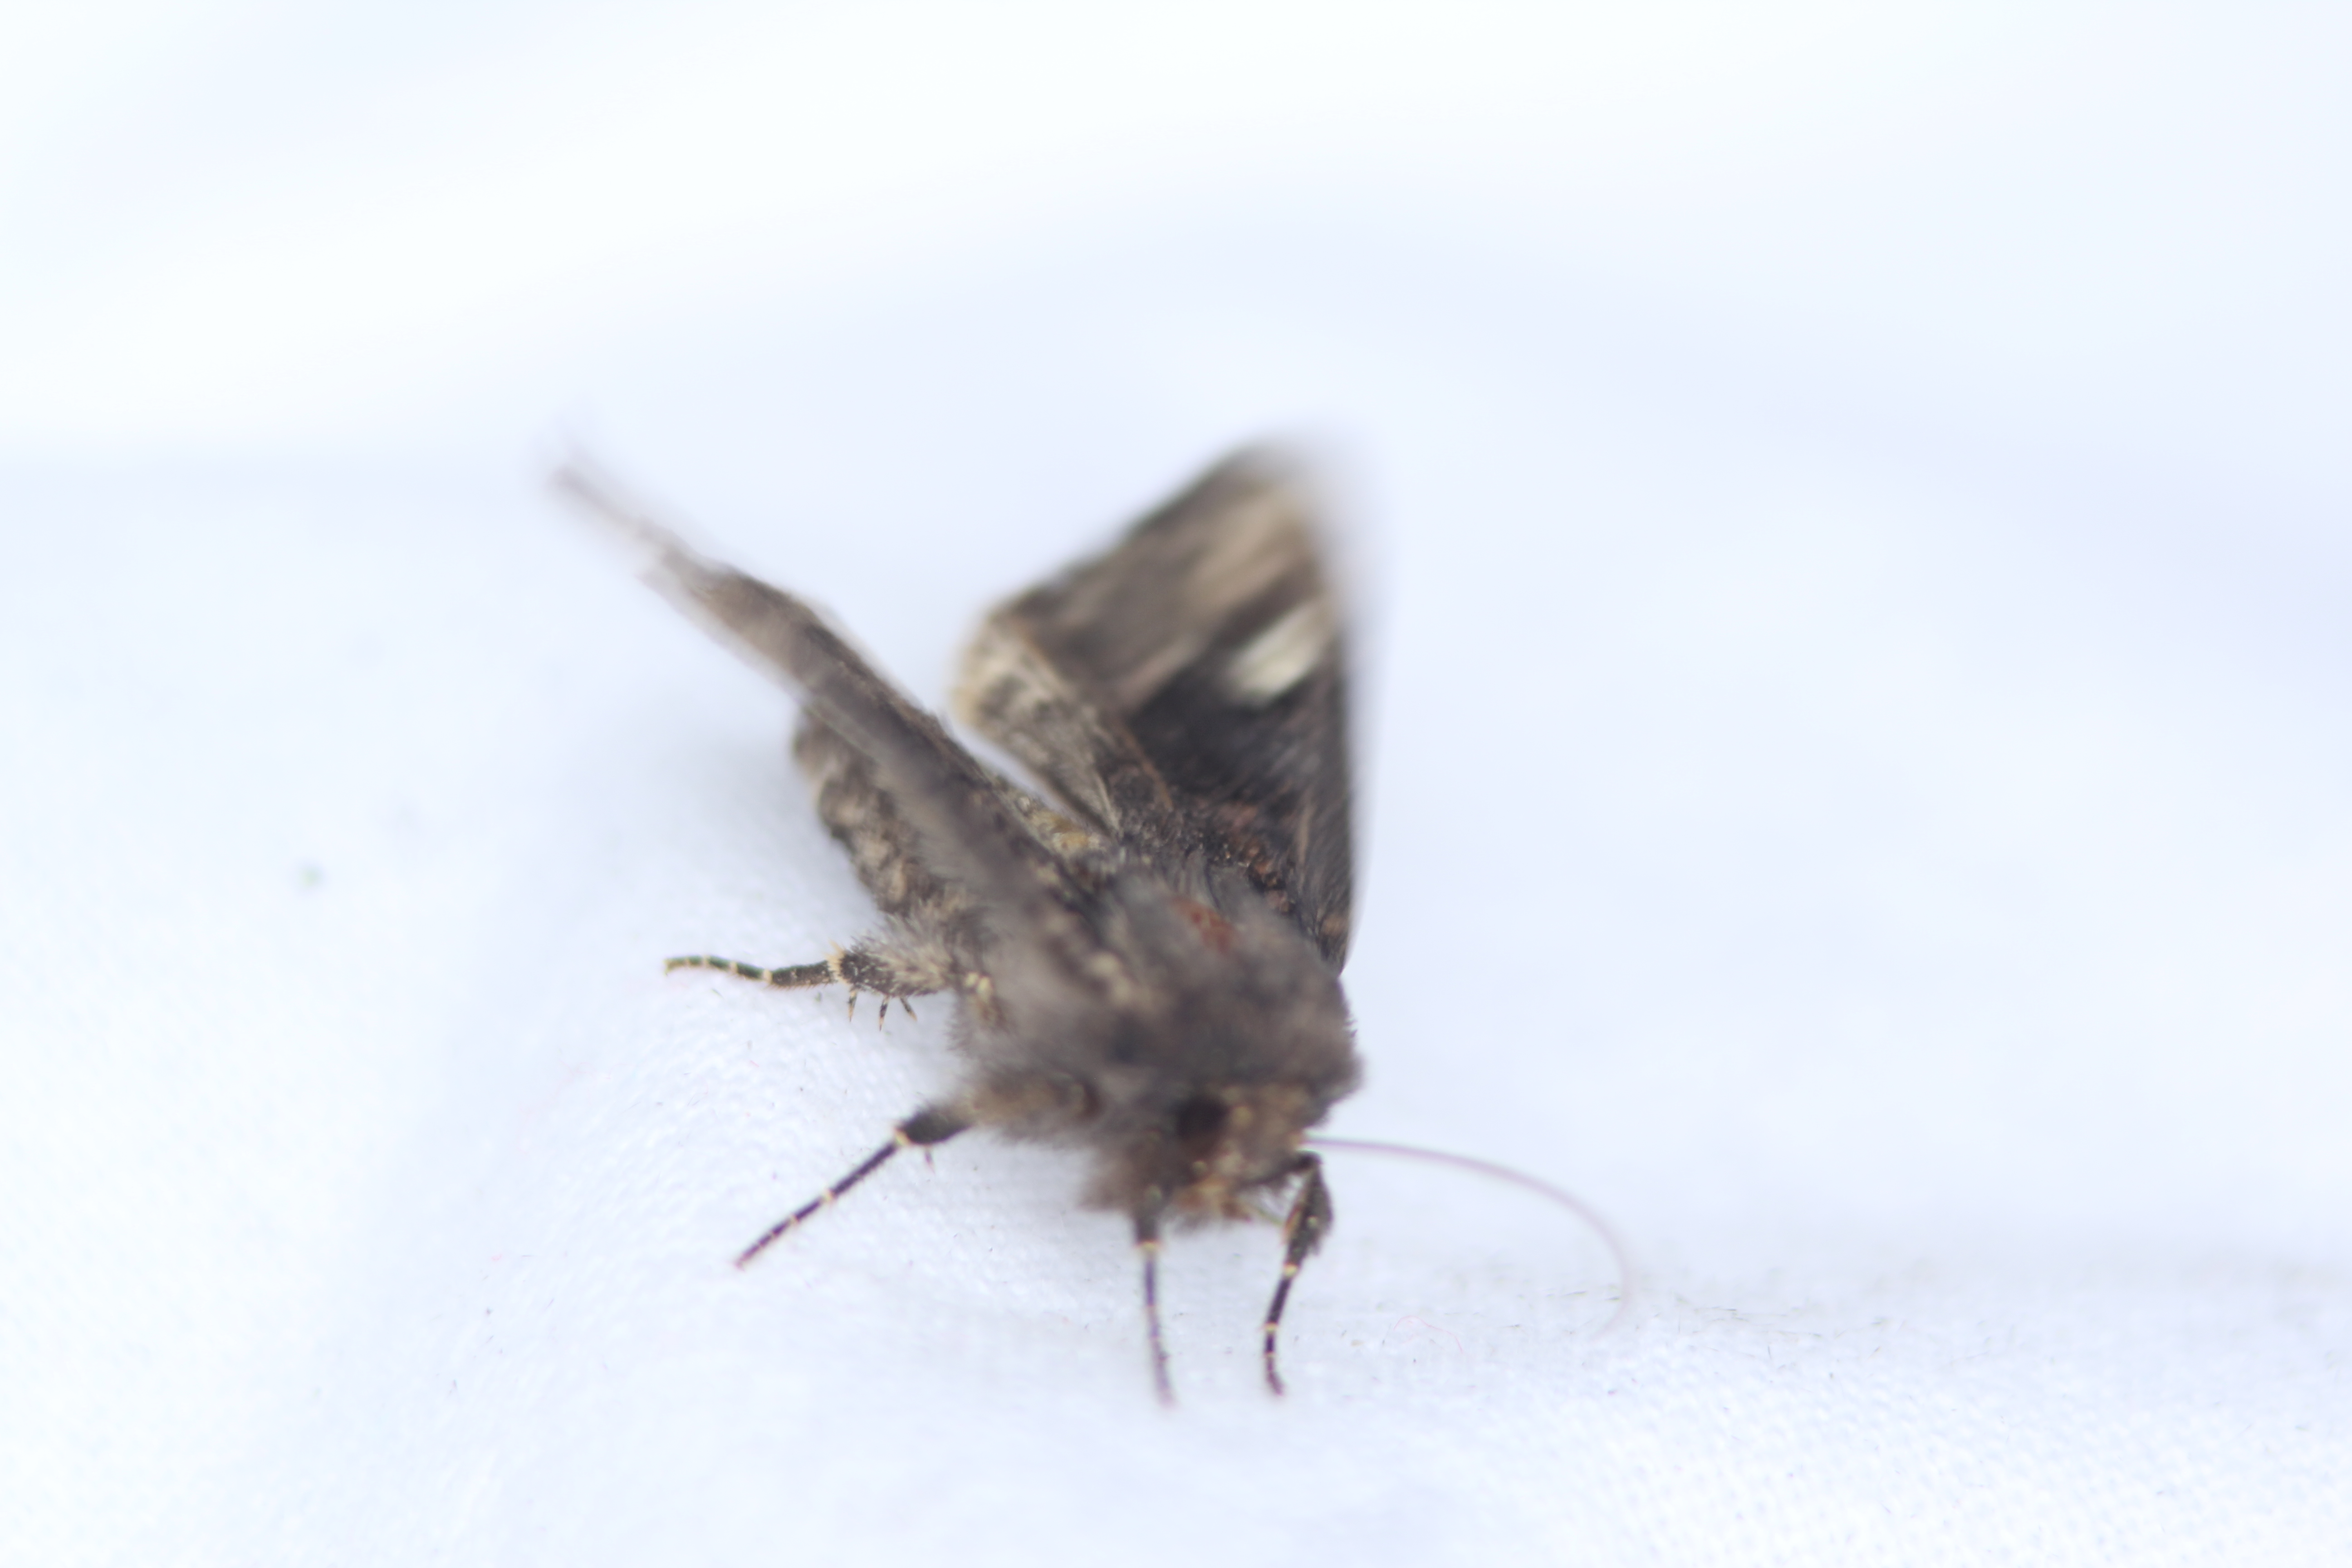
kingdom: Animalia
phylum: Arthropoda
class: Insecta
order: Lepidoptera
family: Noctuidae
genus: Euplexia
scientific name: Euplexia lucipara
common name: Small angle shades
